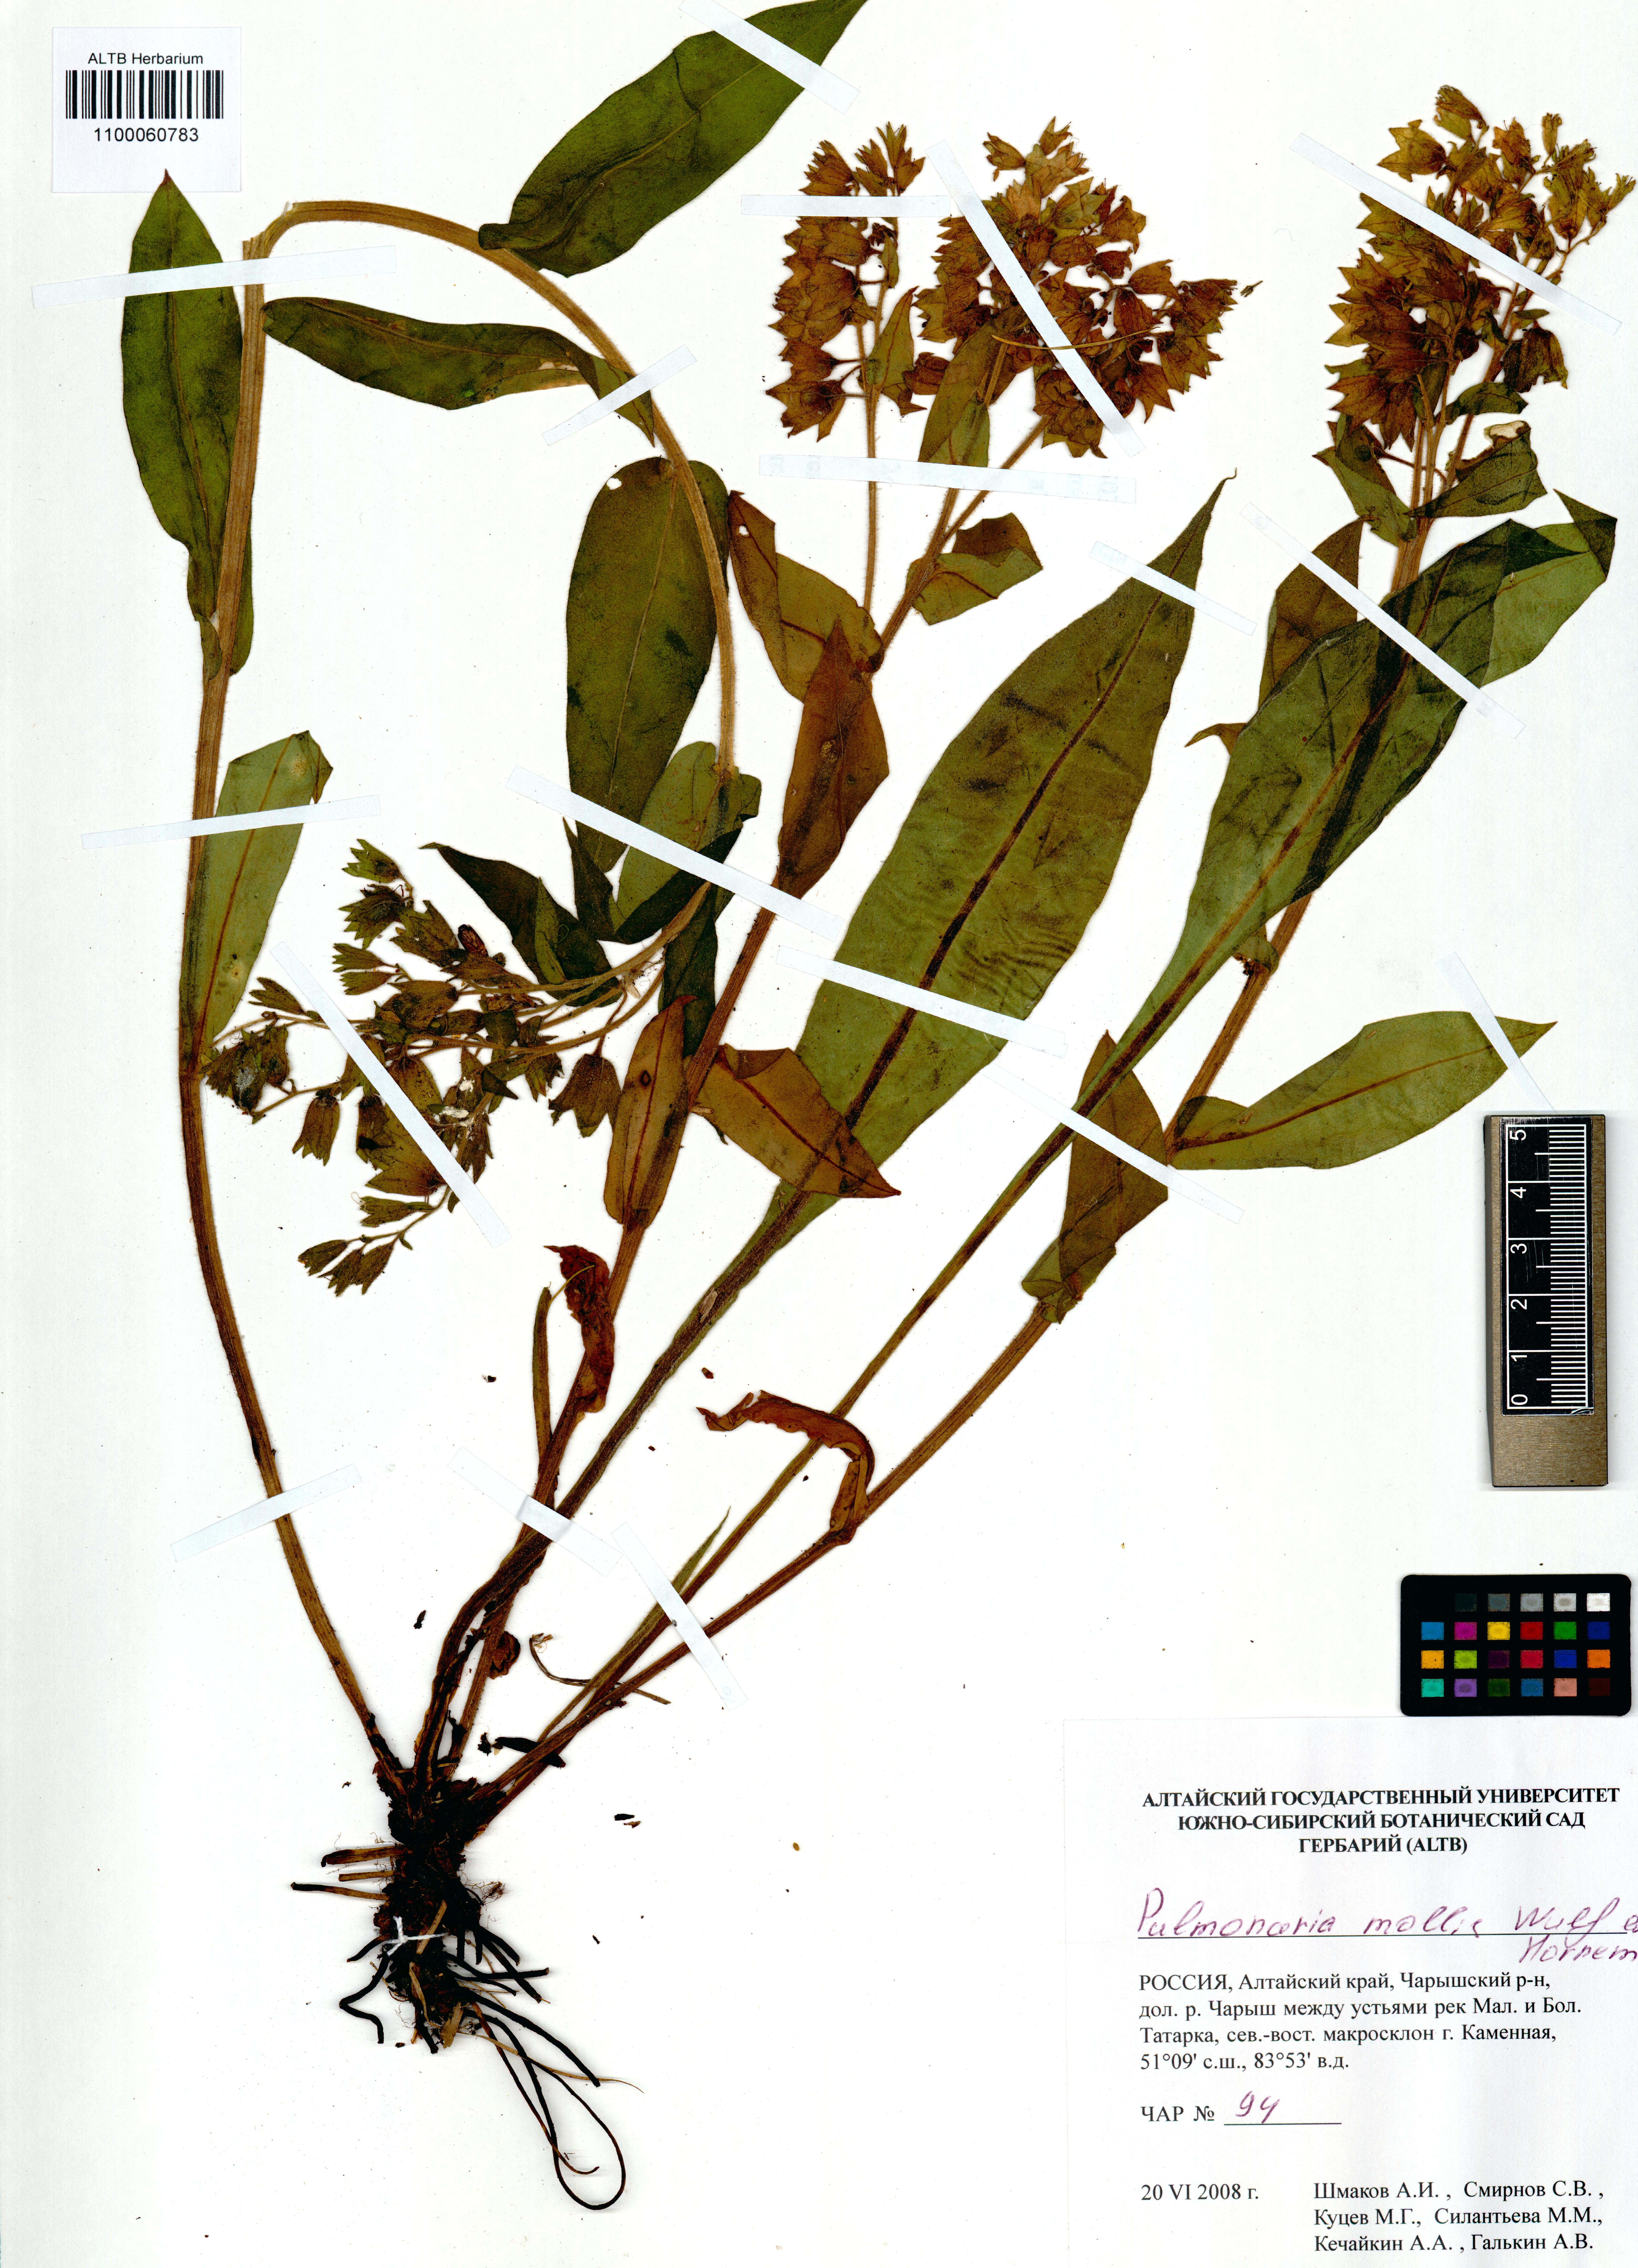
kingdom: Plantae
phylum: Tracheophyta
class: Magnoliopsida
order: Boraginales
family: Boraginaceae
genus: Pulmonaria
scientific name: Pulmonaria mollis
